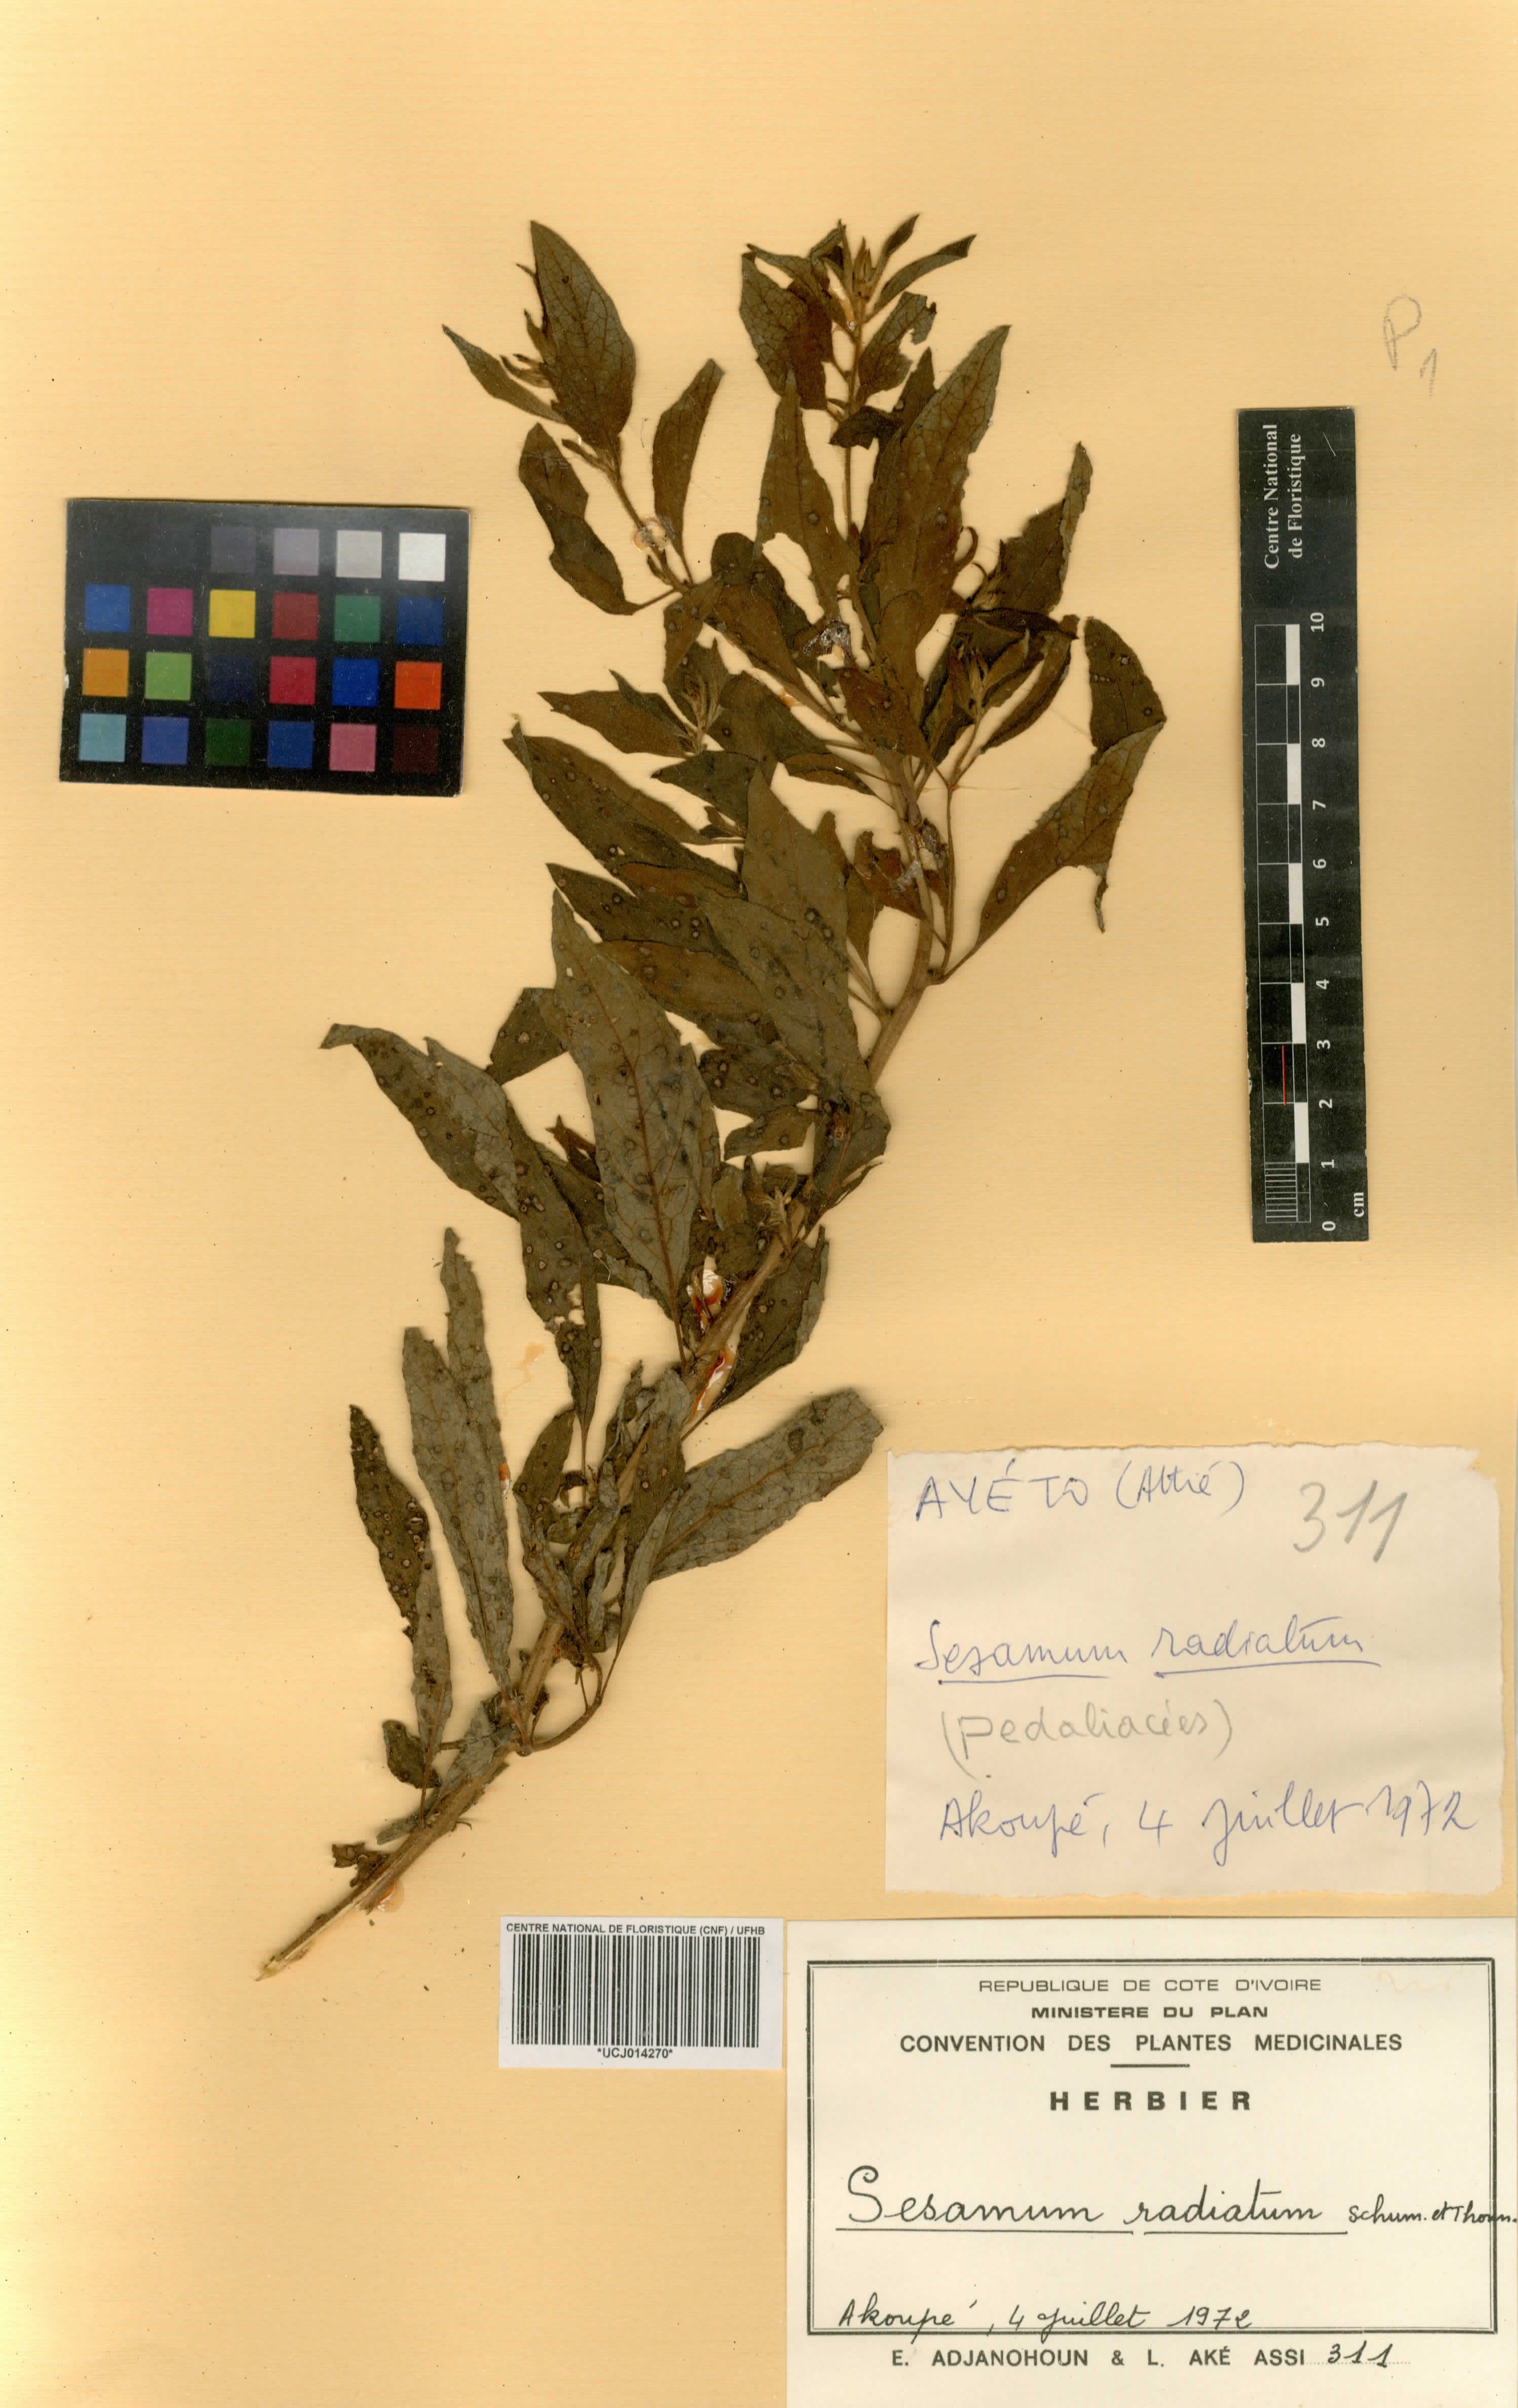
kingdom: Plantae
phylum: Tracheophyta
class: Magnoliopsida
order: Lamiales
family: Pedaliaceae
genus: Sesamum
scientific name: Sesamum radiatum
